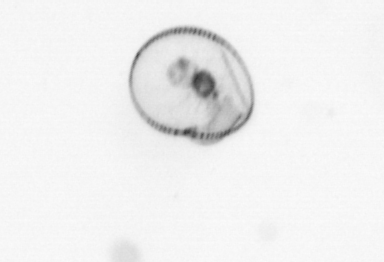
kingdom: Chromista
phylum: Myzozoa
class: Dinophyceae
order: Noctilucales
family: Noctilucaceae
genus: Noctiluca
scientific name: Noctiluca scintillans
